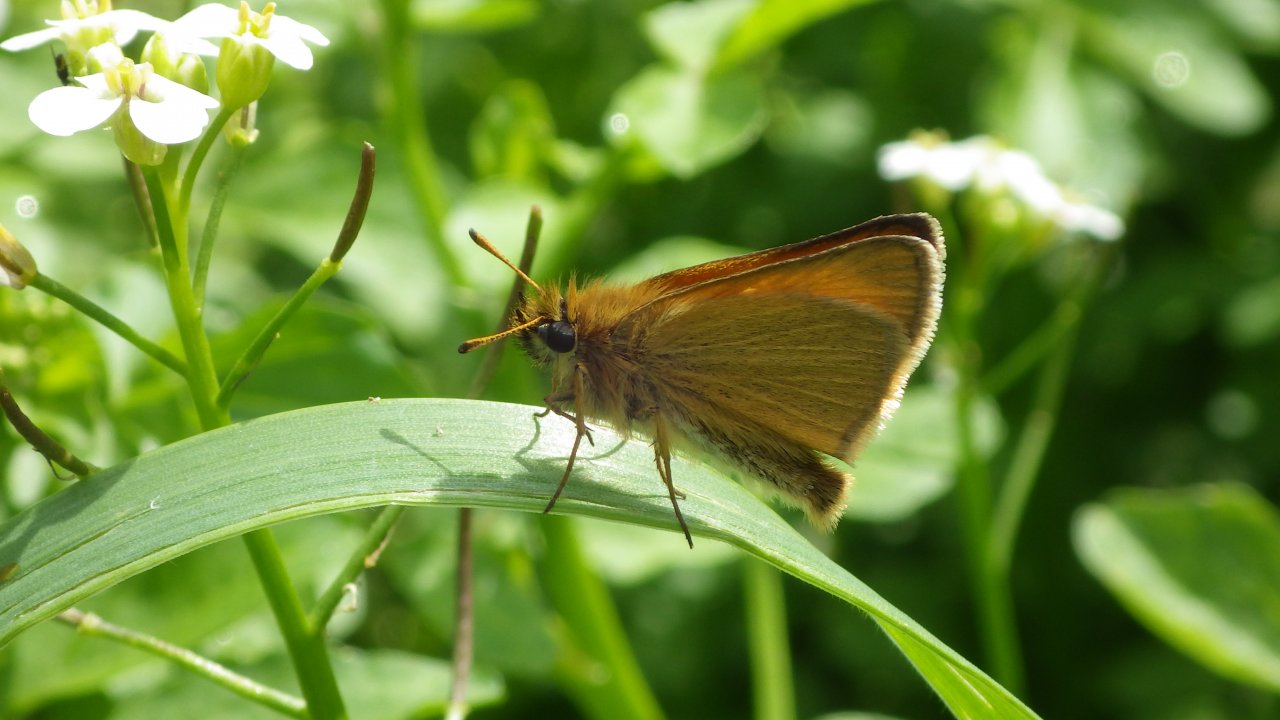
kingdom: Animalia
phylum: Arthropoda
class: Insecta
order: Lepidoptera
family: Hesperiidae
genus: Thymelicus
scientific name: Thymelicus lineola
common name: European Skipper
